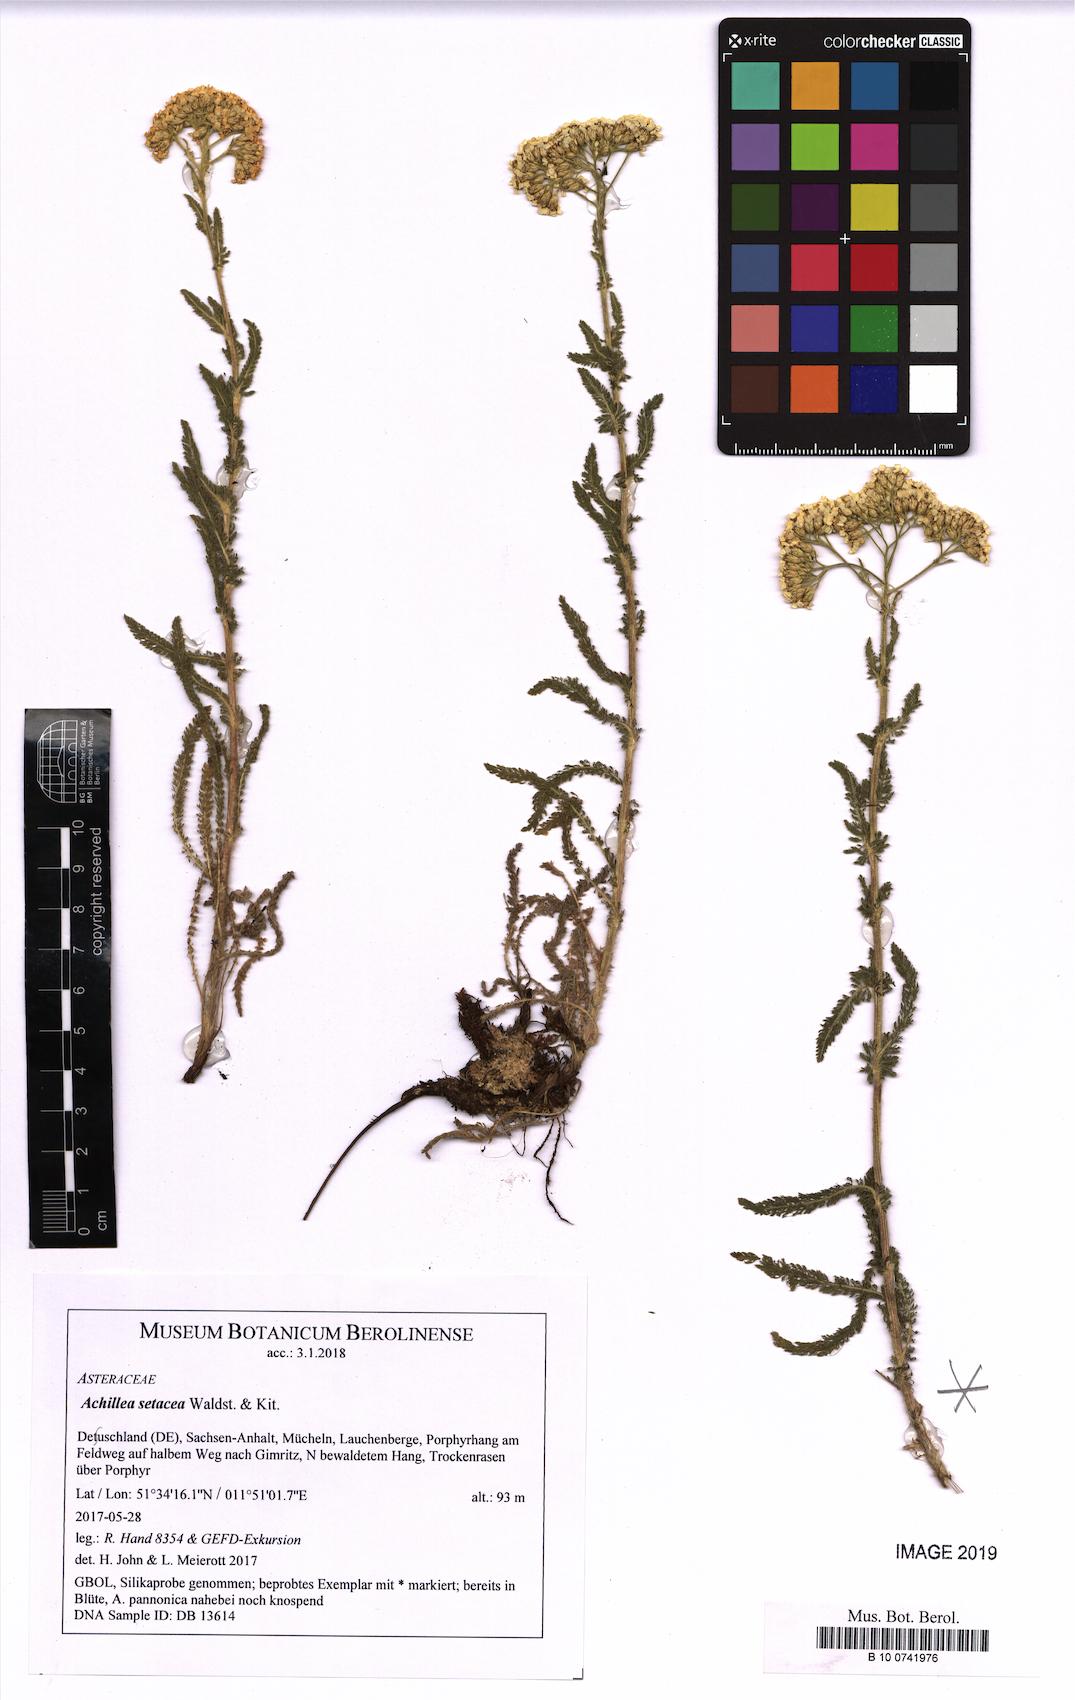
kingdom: Plantae
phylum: Tracheophyta
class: Magnoliopsida
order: Asterales
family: Asteraceae
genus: Achillea
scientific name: Achillea setacea
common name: Bristly yarrow
